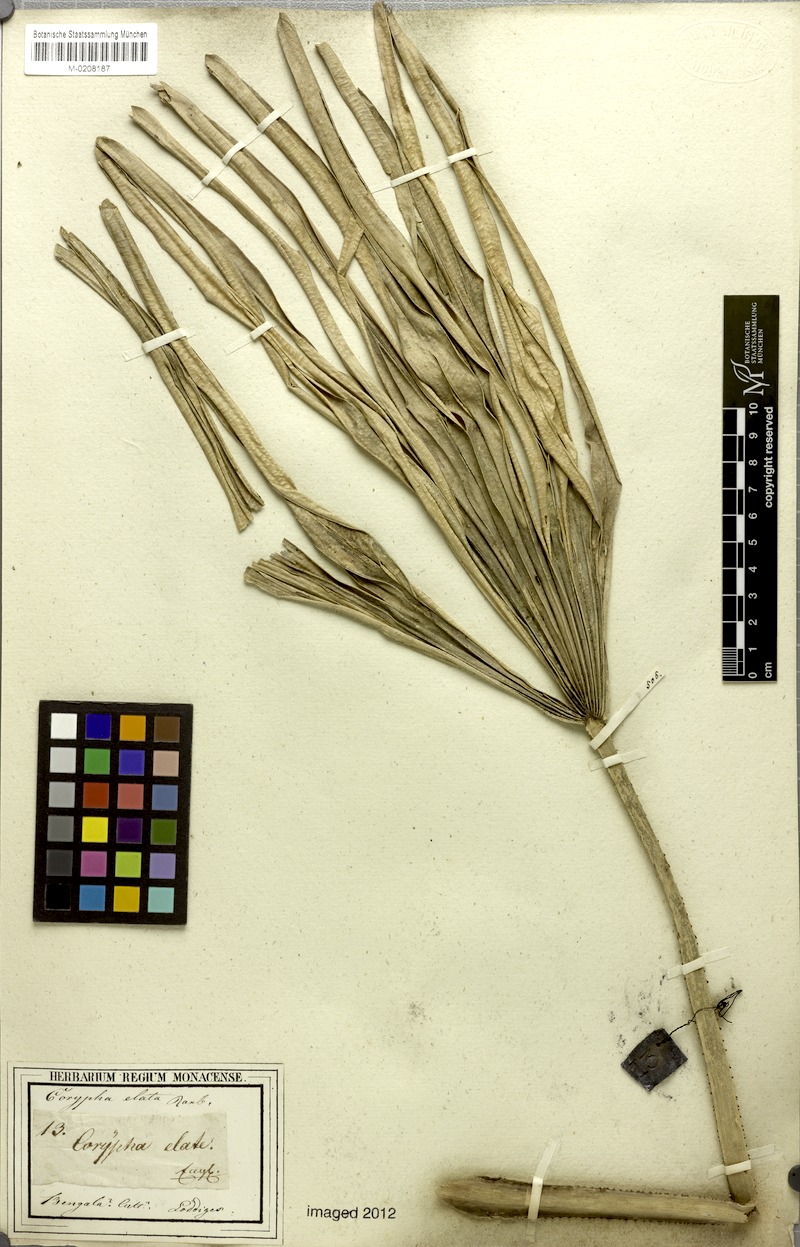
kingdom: Plantae
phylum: Tracheophyta
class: Liliopsida
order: Arecales
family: Arecaceae
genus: Corypha
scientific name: Corypha utan
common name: Buri palm
